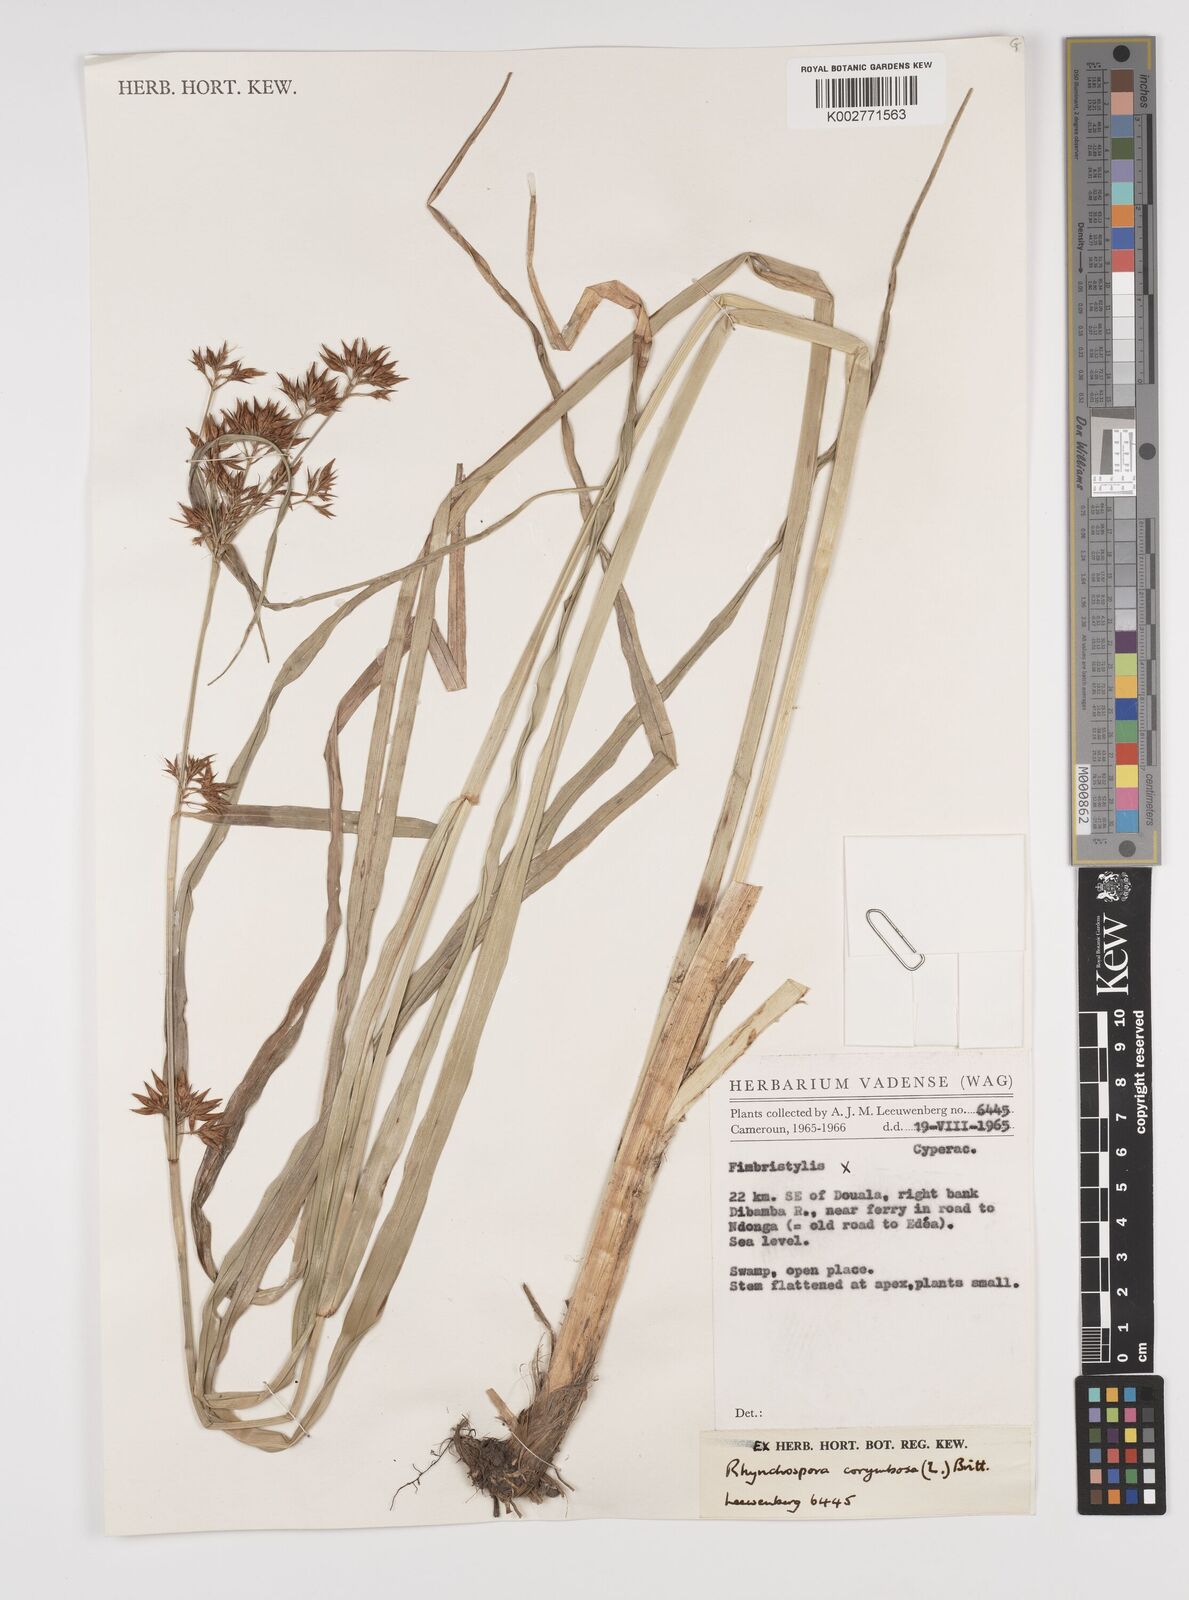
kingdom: Plantae
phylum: Tracheophyta
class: Liliopsida
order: Poales
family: Cyperaceae
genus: Rhynchospora
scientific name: Rhynchospora corymbosa
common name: Golden beak sedge
